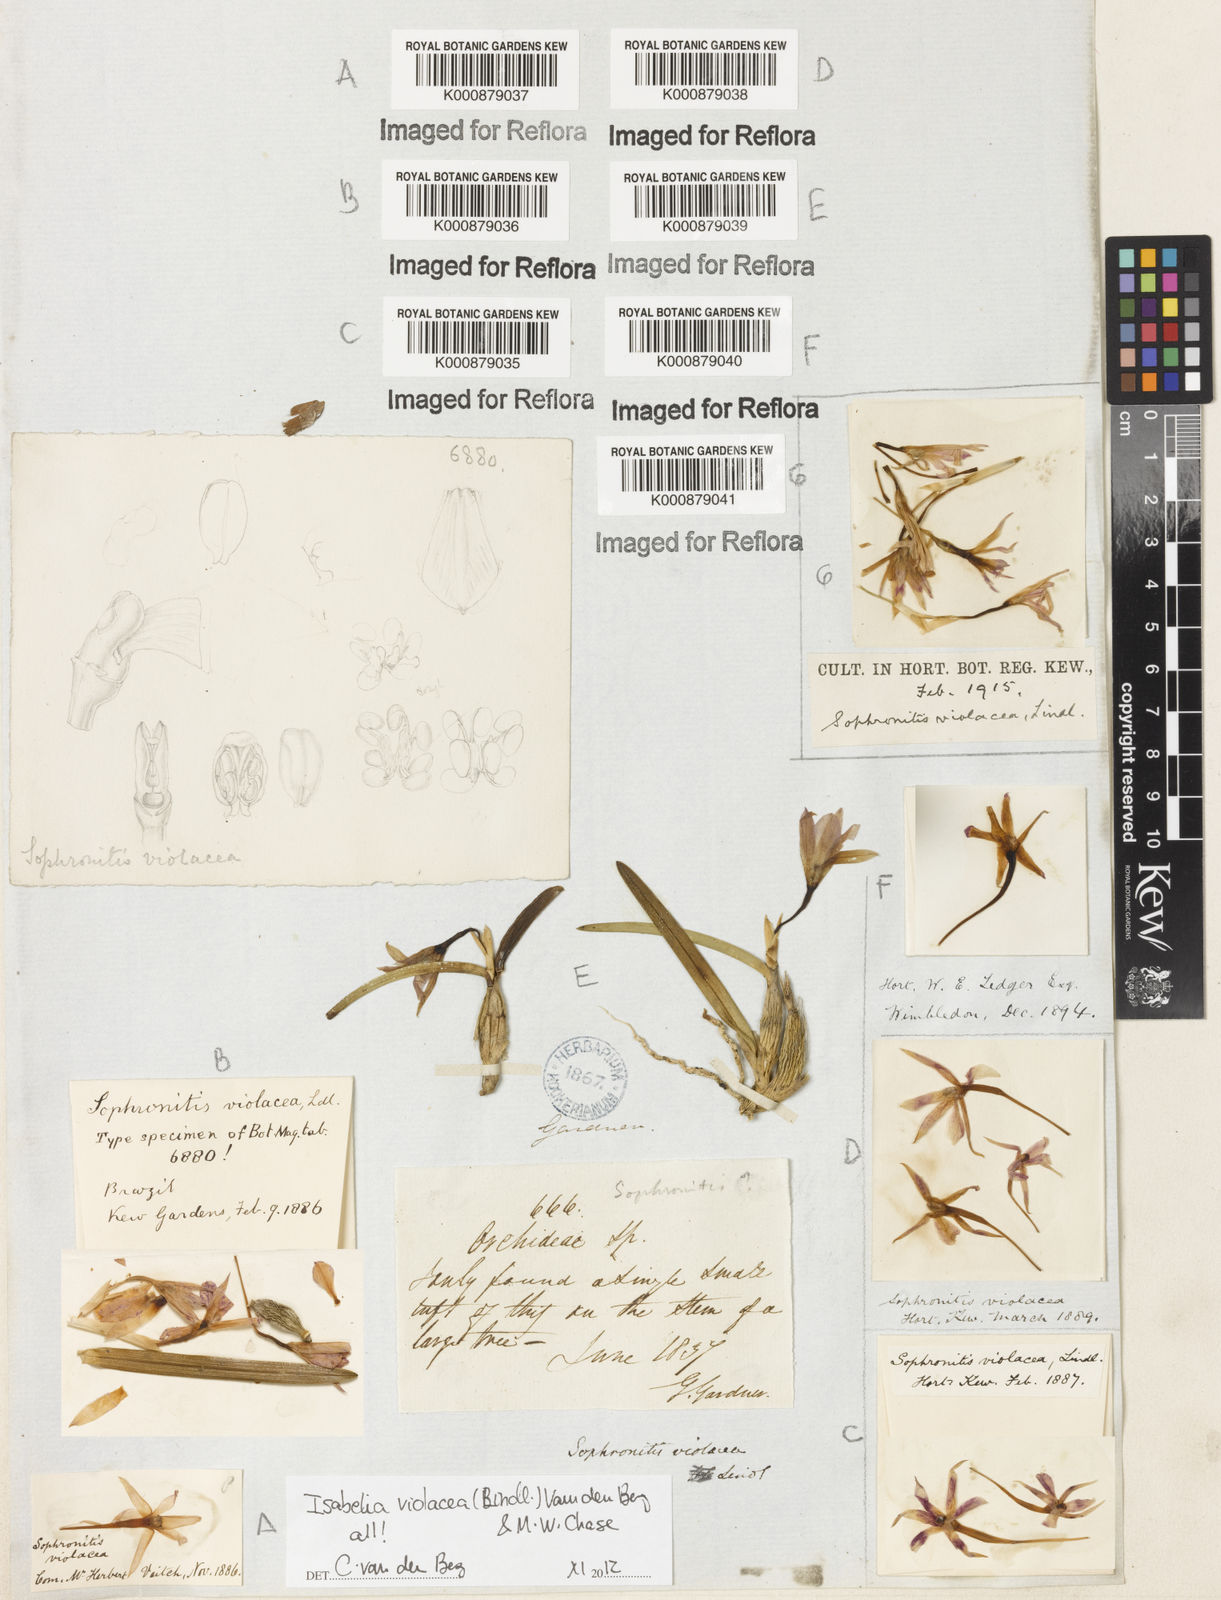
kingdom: Plantae
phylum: Tracheophyta
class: Liliopsida
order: Asparagales
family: Orchidaceae
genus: Isabelia
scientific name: Isabelia
